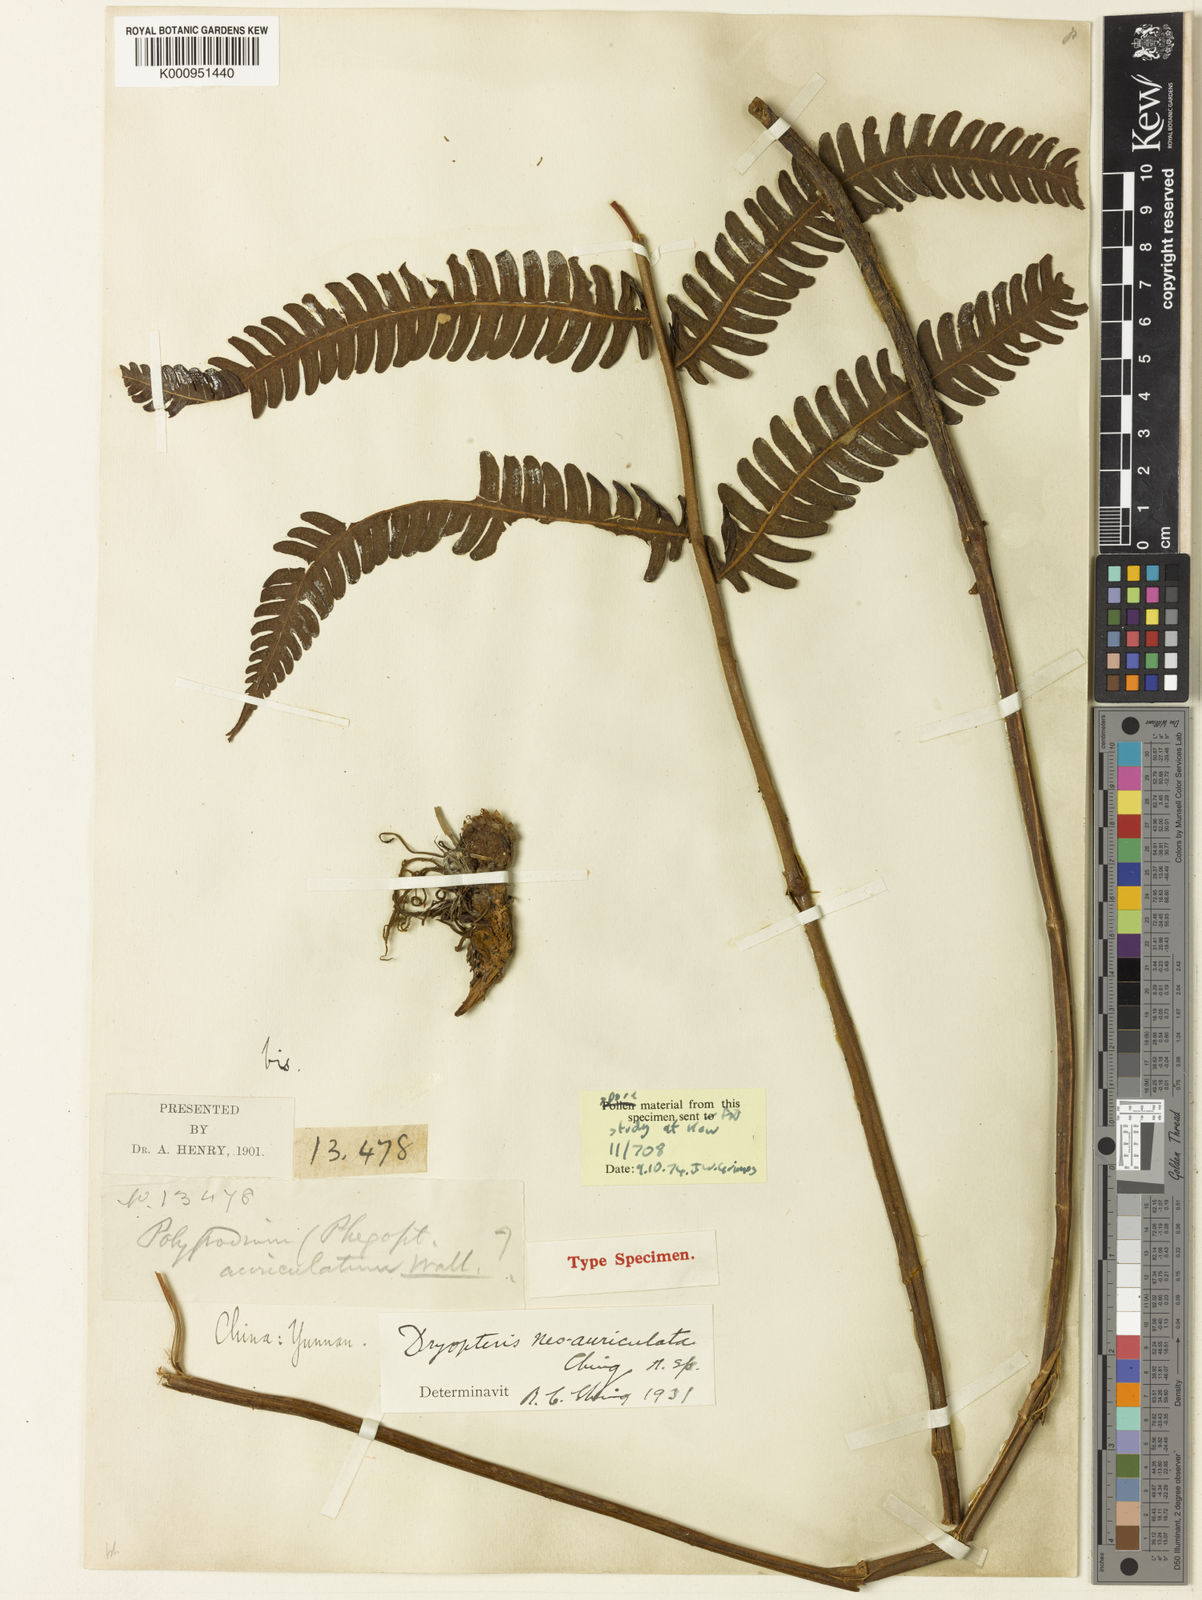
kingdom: Plantae
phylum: Tracheophyta
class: Polypodiopsida
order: Polypodiales
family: Thelypteridaceae
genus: Cyclogramma
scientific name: Cyclogramma neoauriculata
